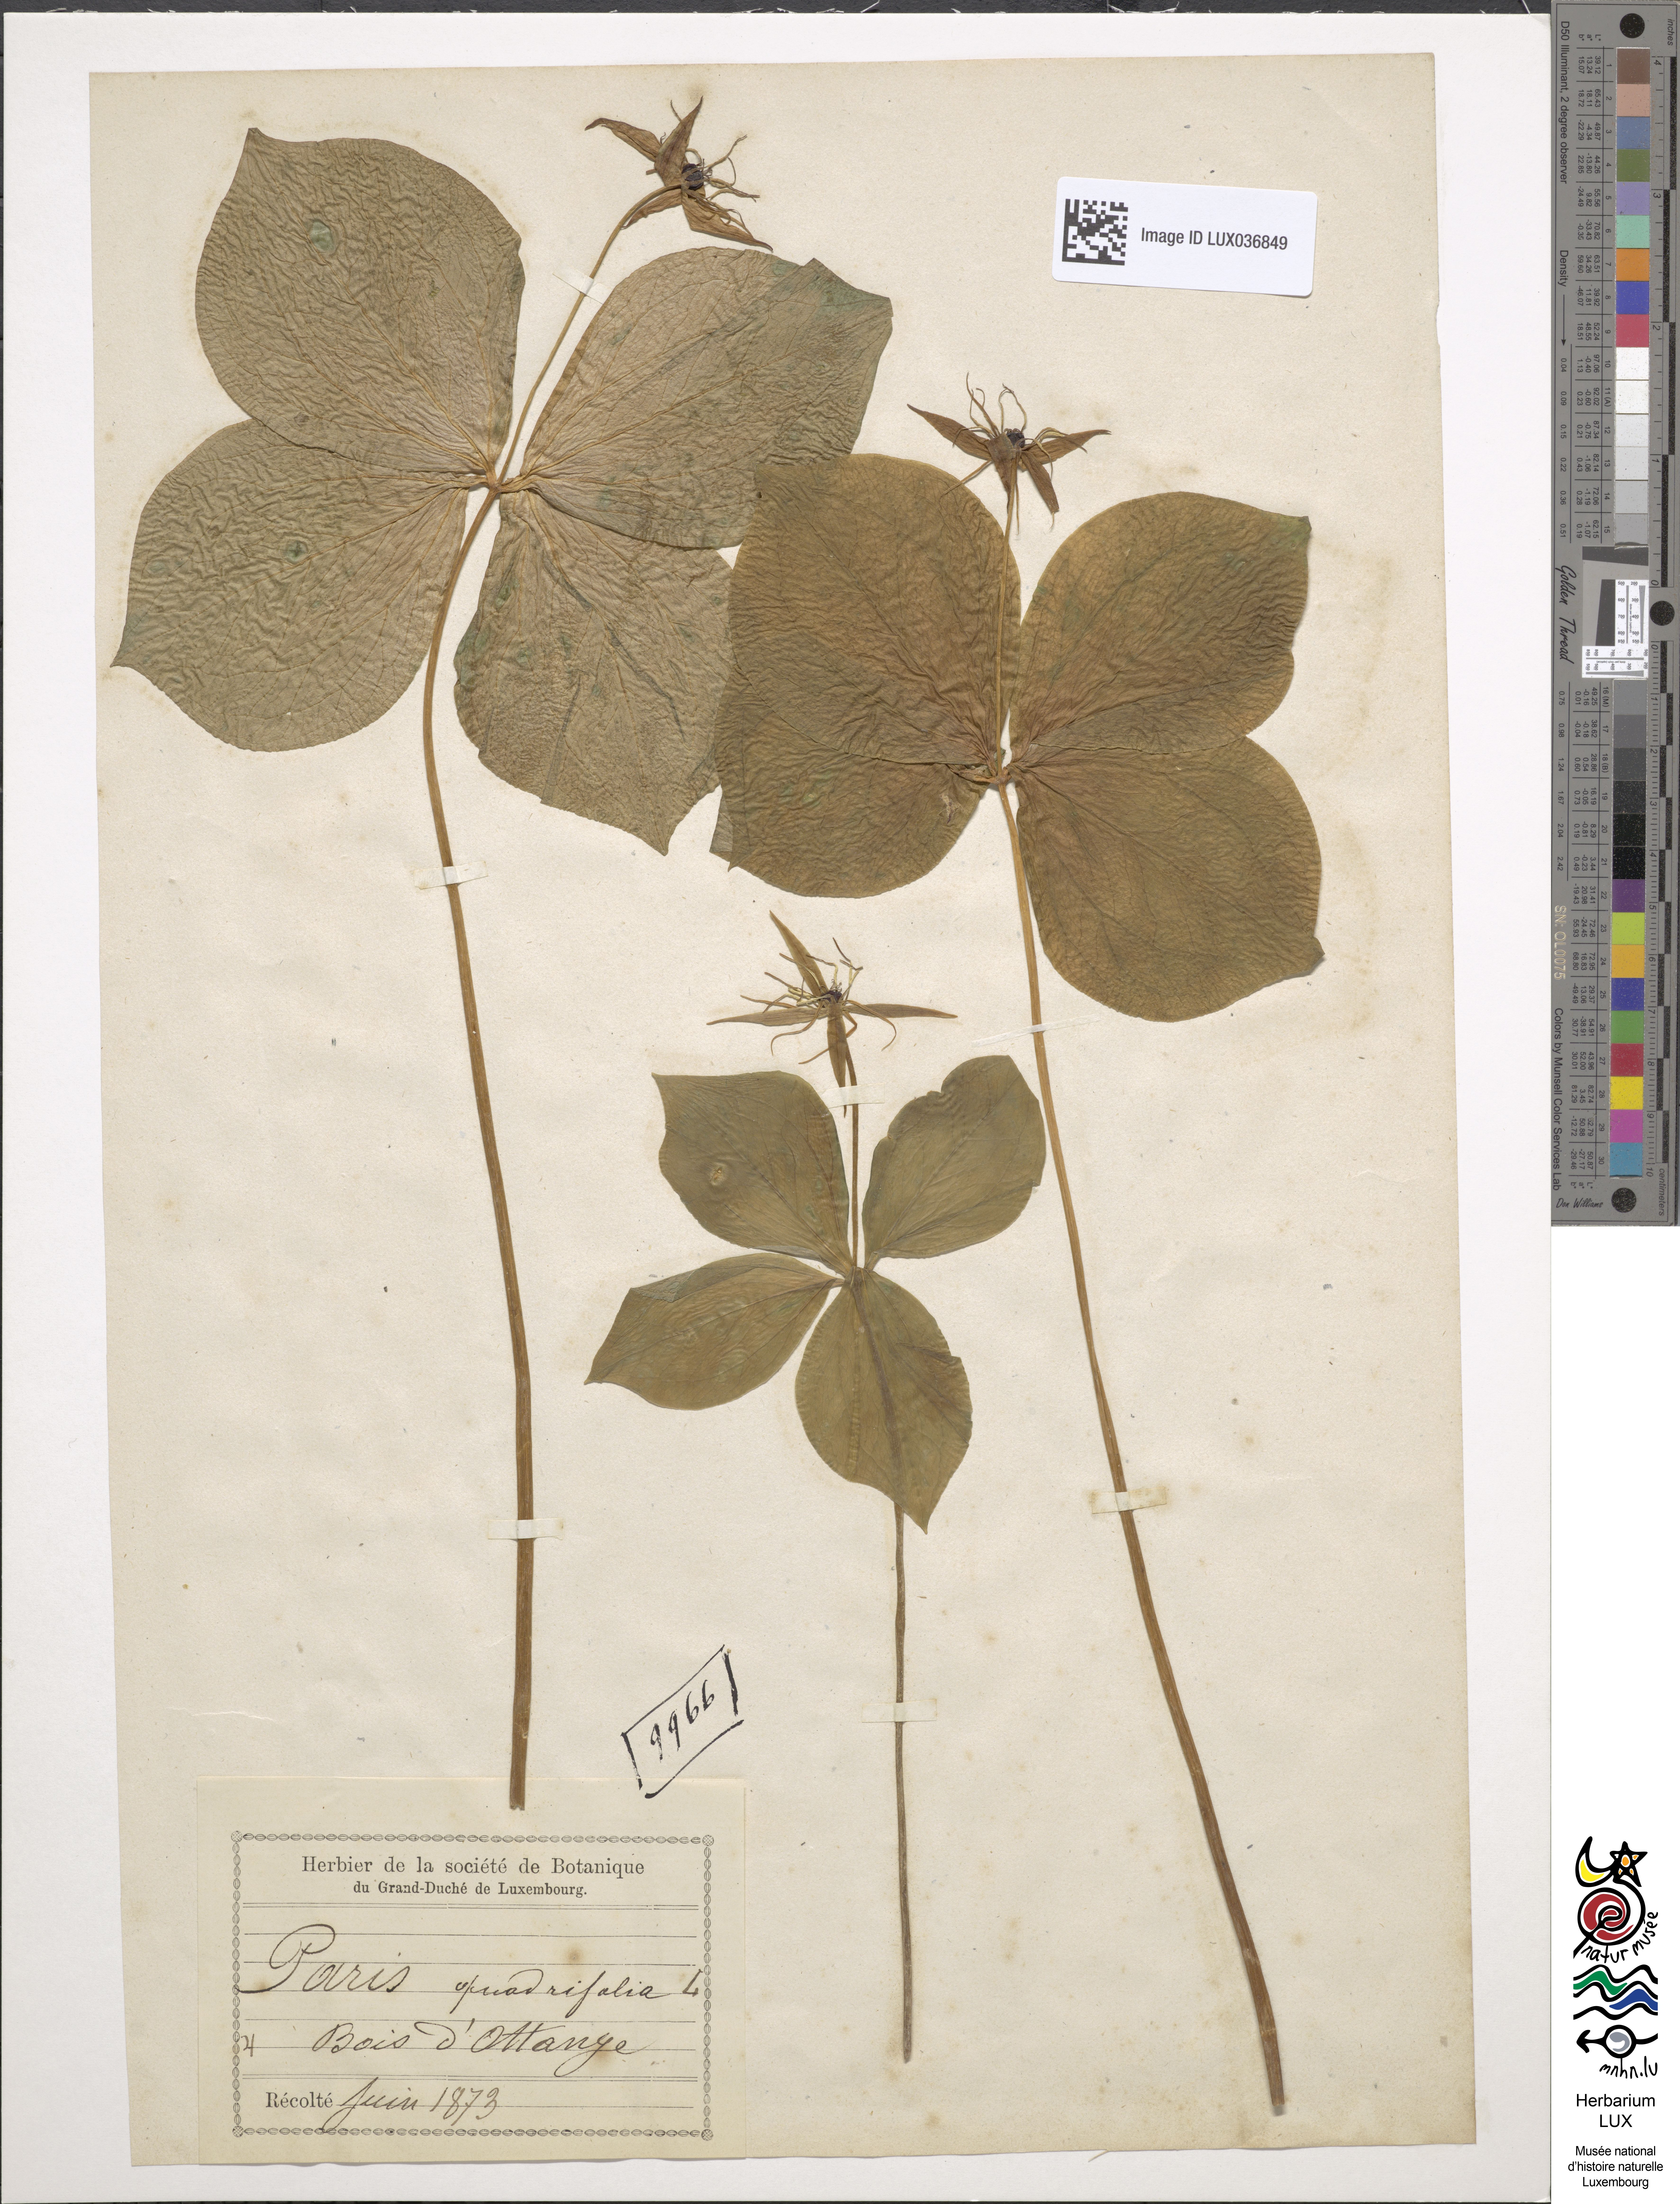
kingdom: Plantae
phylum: Tracheophyta
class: Liliopsida
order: Liliales
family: Melanthiaceae
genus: Paris
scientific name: Paris quadrifolia
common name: Herb-paris
